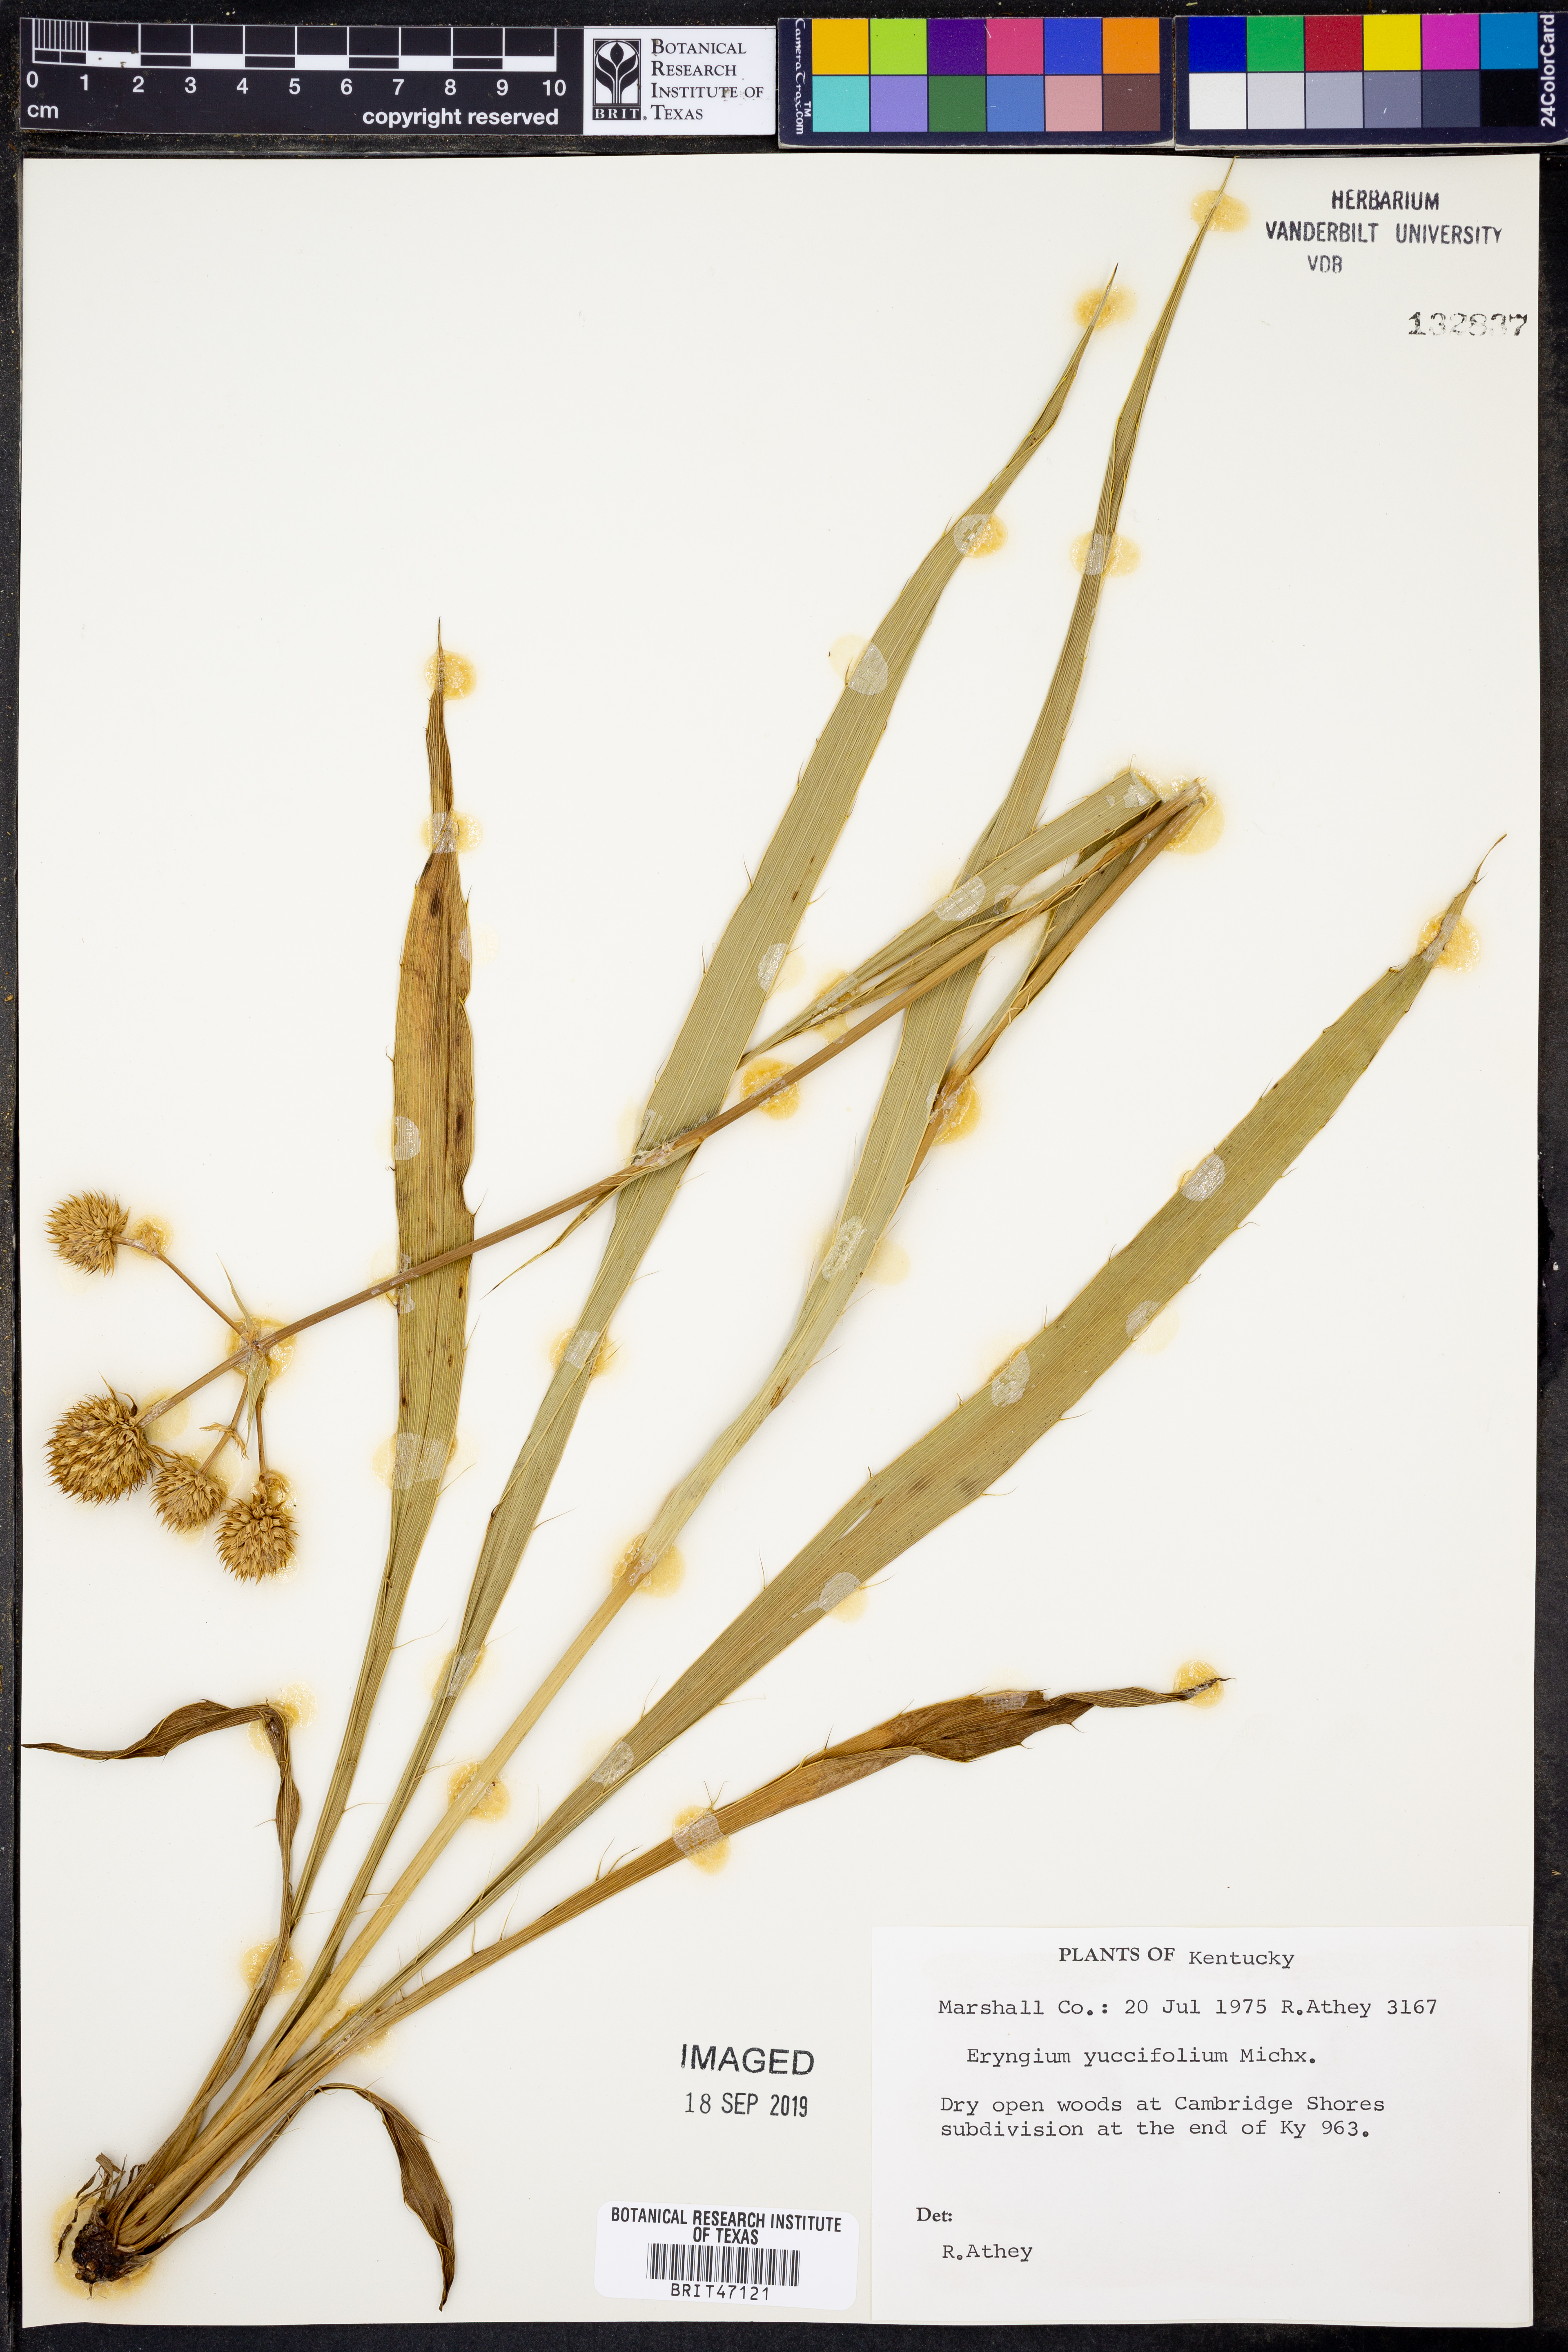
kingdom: Plantae
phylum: Tracheophyta
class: Magnoliopsida
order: Apiales
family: Apiaceae
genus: Eryngium
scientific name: Eryngium yuccifolium
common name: Button eryngo
